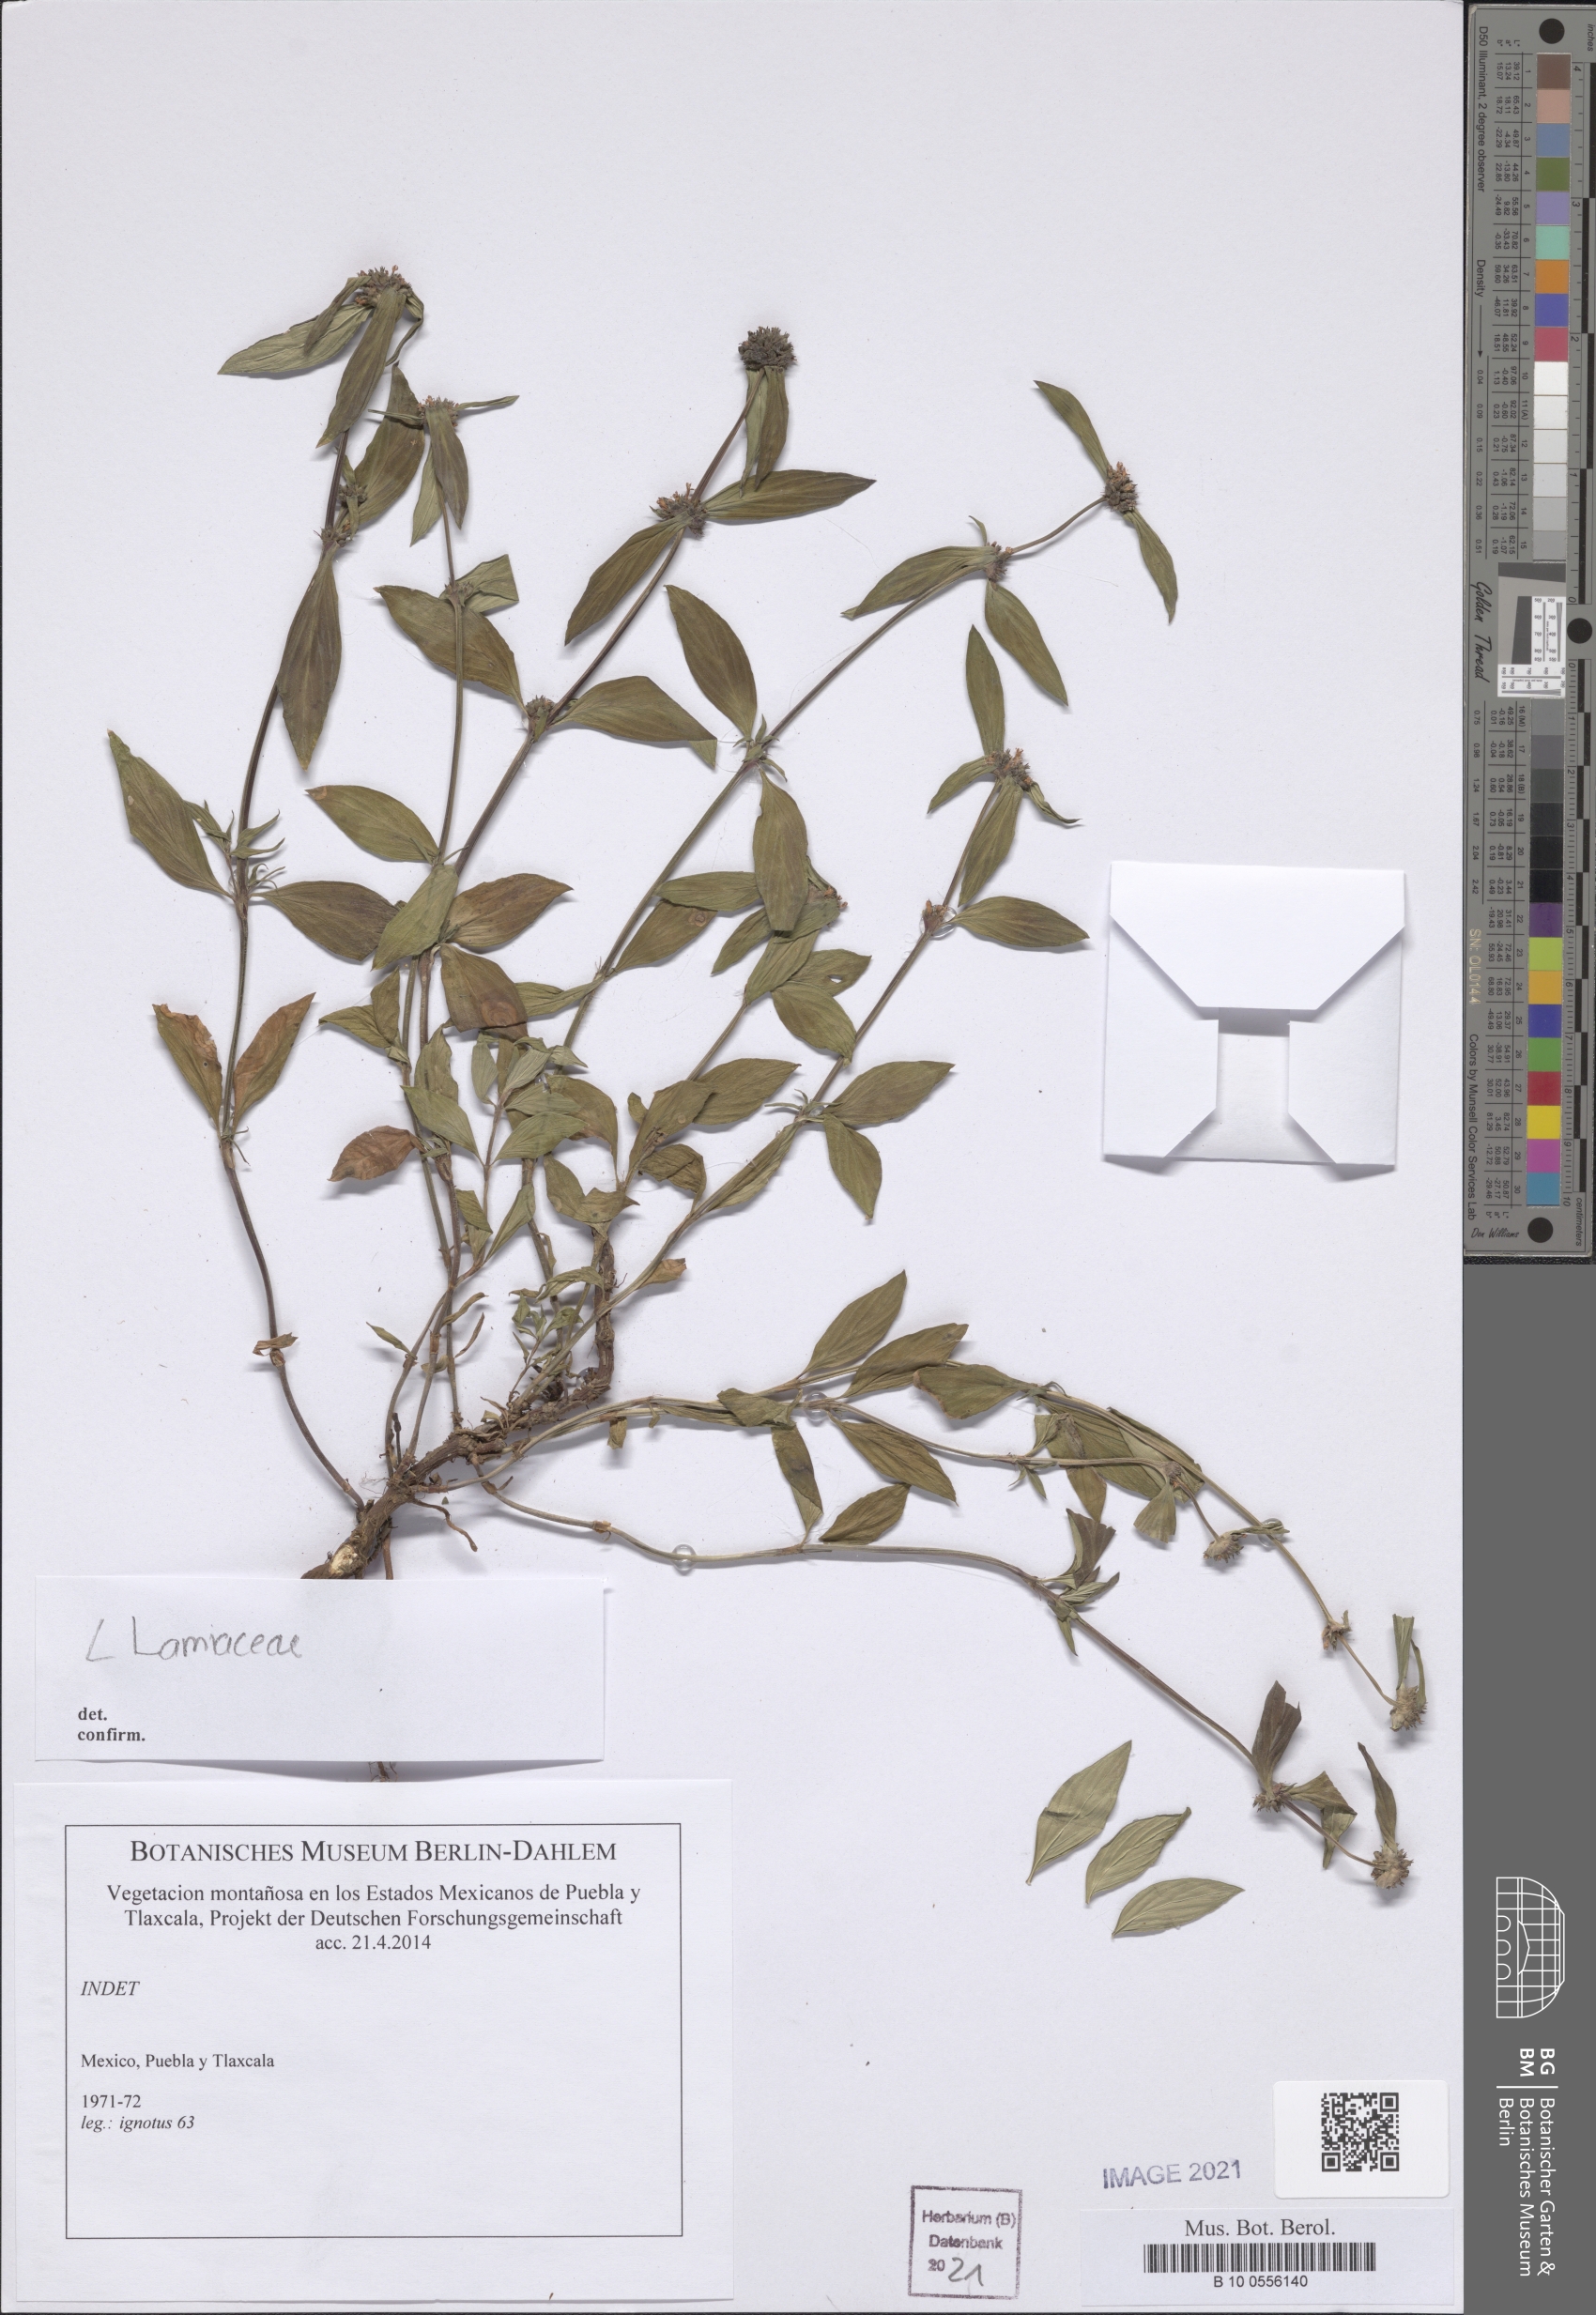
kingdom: Plantae
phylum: Tracheophyta
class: Magnoliopsida
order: Gentianales
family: Rubiaceae
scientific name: Rubiaceae
